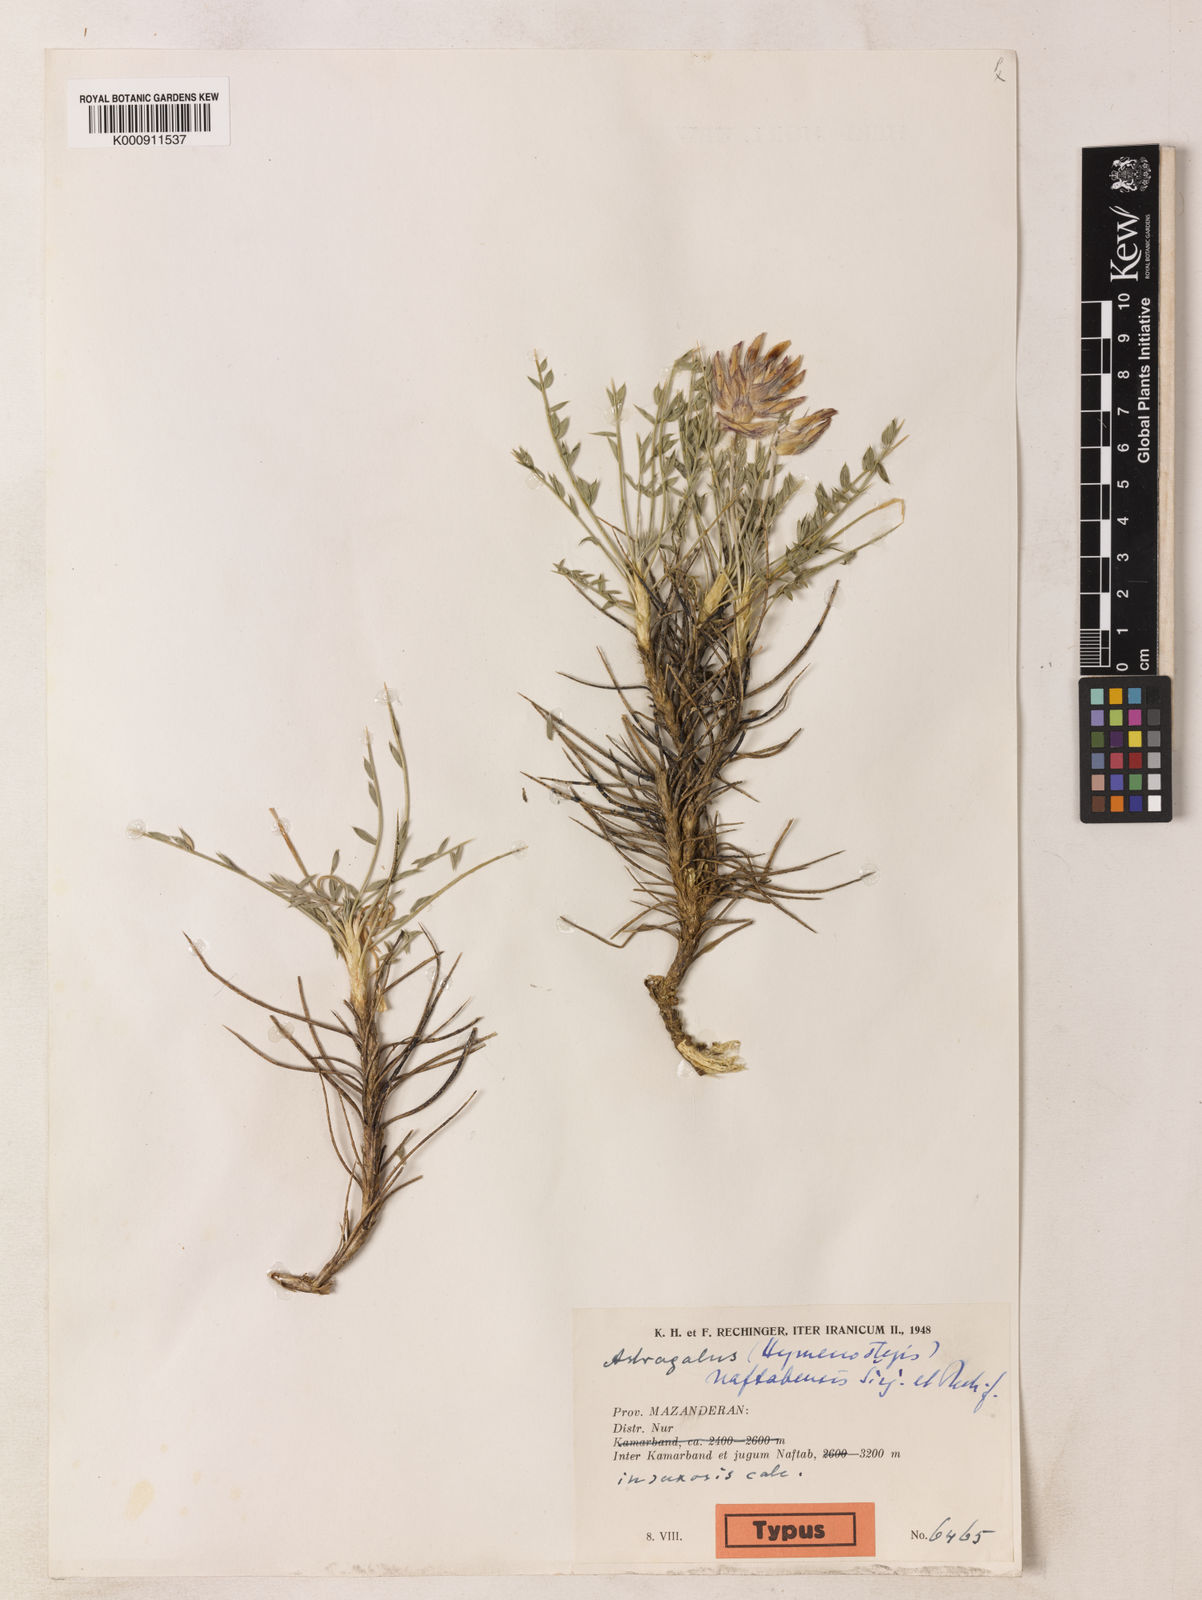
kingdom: Plantae
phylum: Tracheophyta
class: Magnoliopsida
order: Fabales
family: Fabaceae
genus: Astragalus
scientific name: Astragalus persicus
